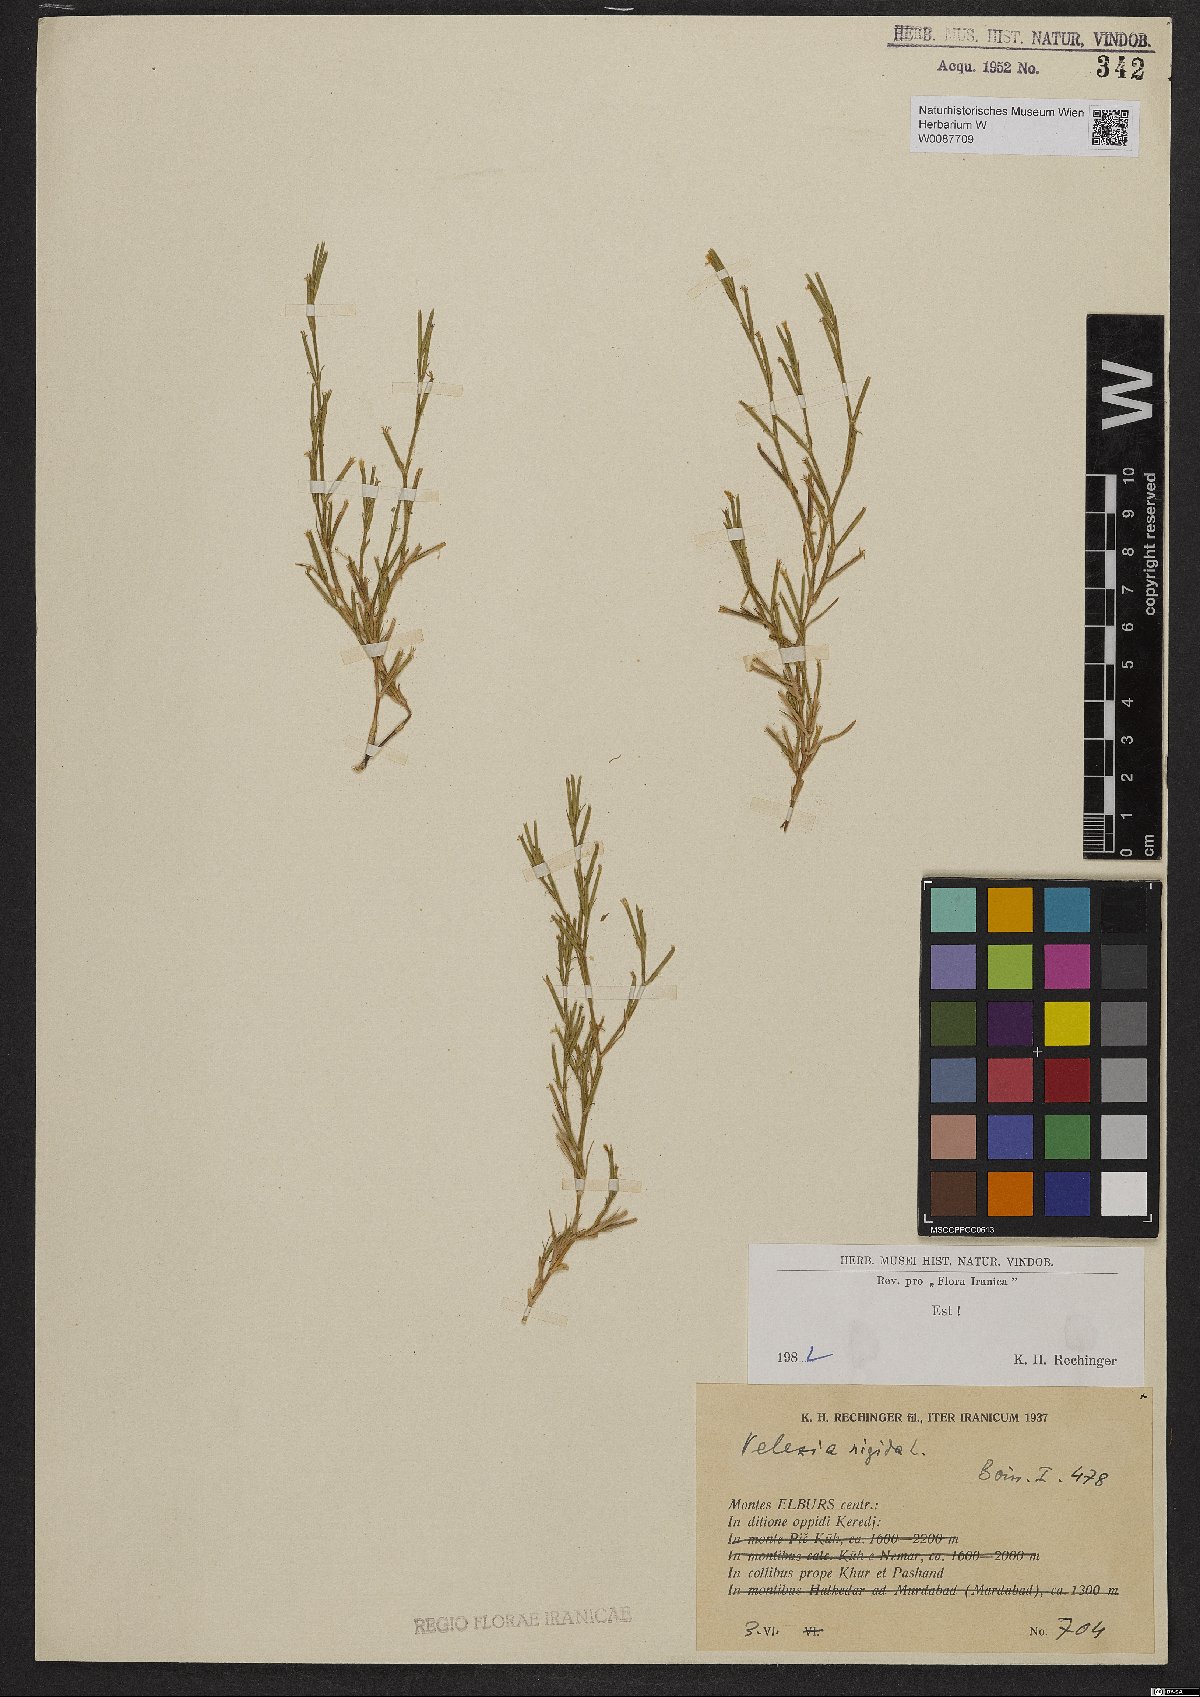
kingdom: Plantae
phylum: Tracheophyta
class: Magnoliopsida
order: Caryophyllales
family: Caryophyllaceae
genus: Dianthus
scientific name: Dianthus nudiflorus
